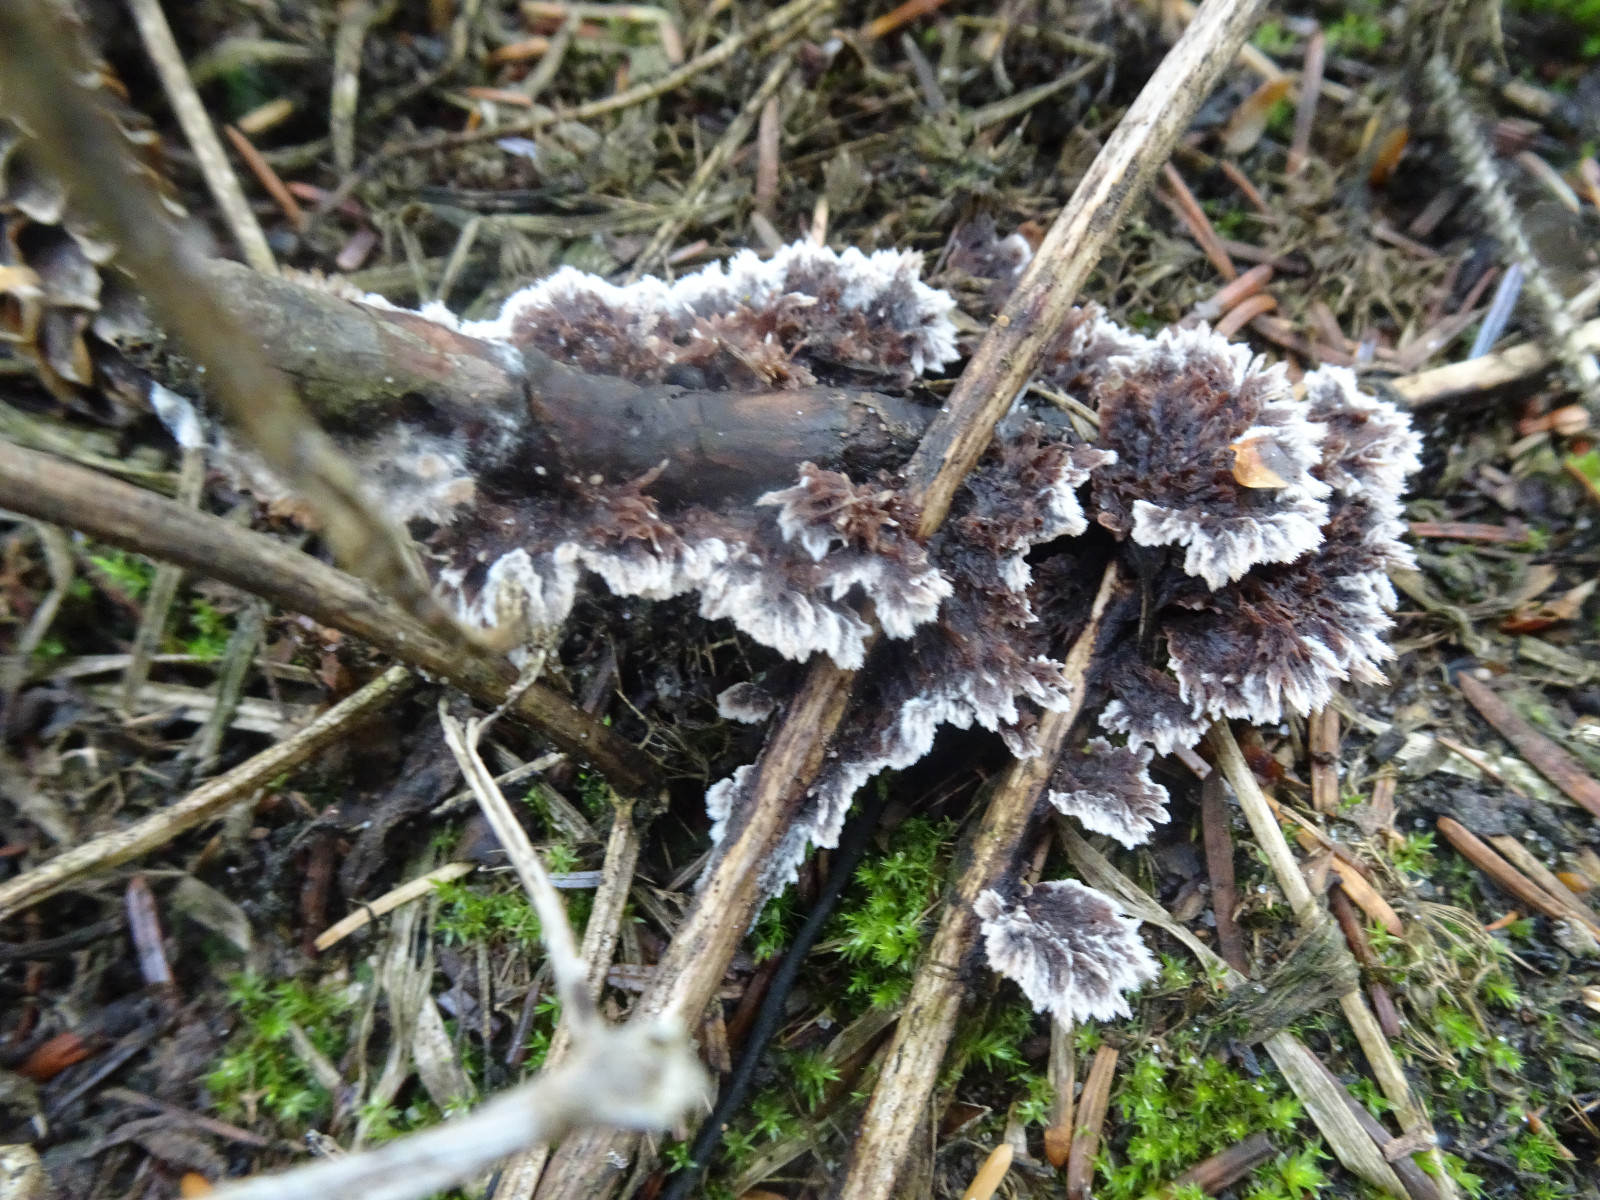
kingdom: Fungi
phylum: Basidiomycota
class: Agaricomycetes
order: Thelephorales
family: Thelephoraceae
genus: Thelephora
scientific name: Thelephora terrestris
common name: fliget frynsesvamp
